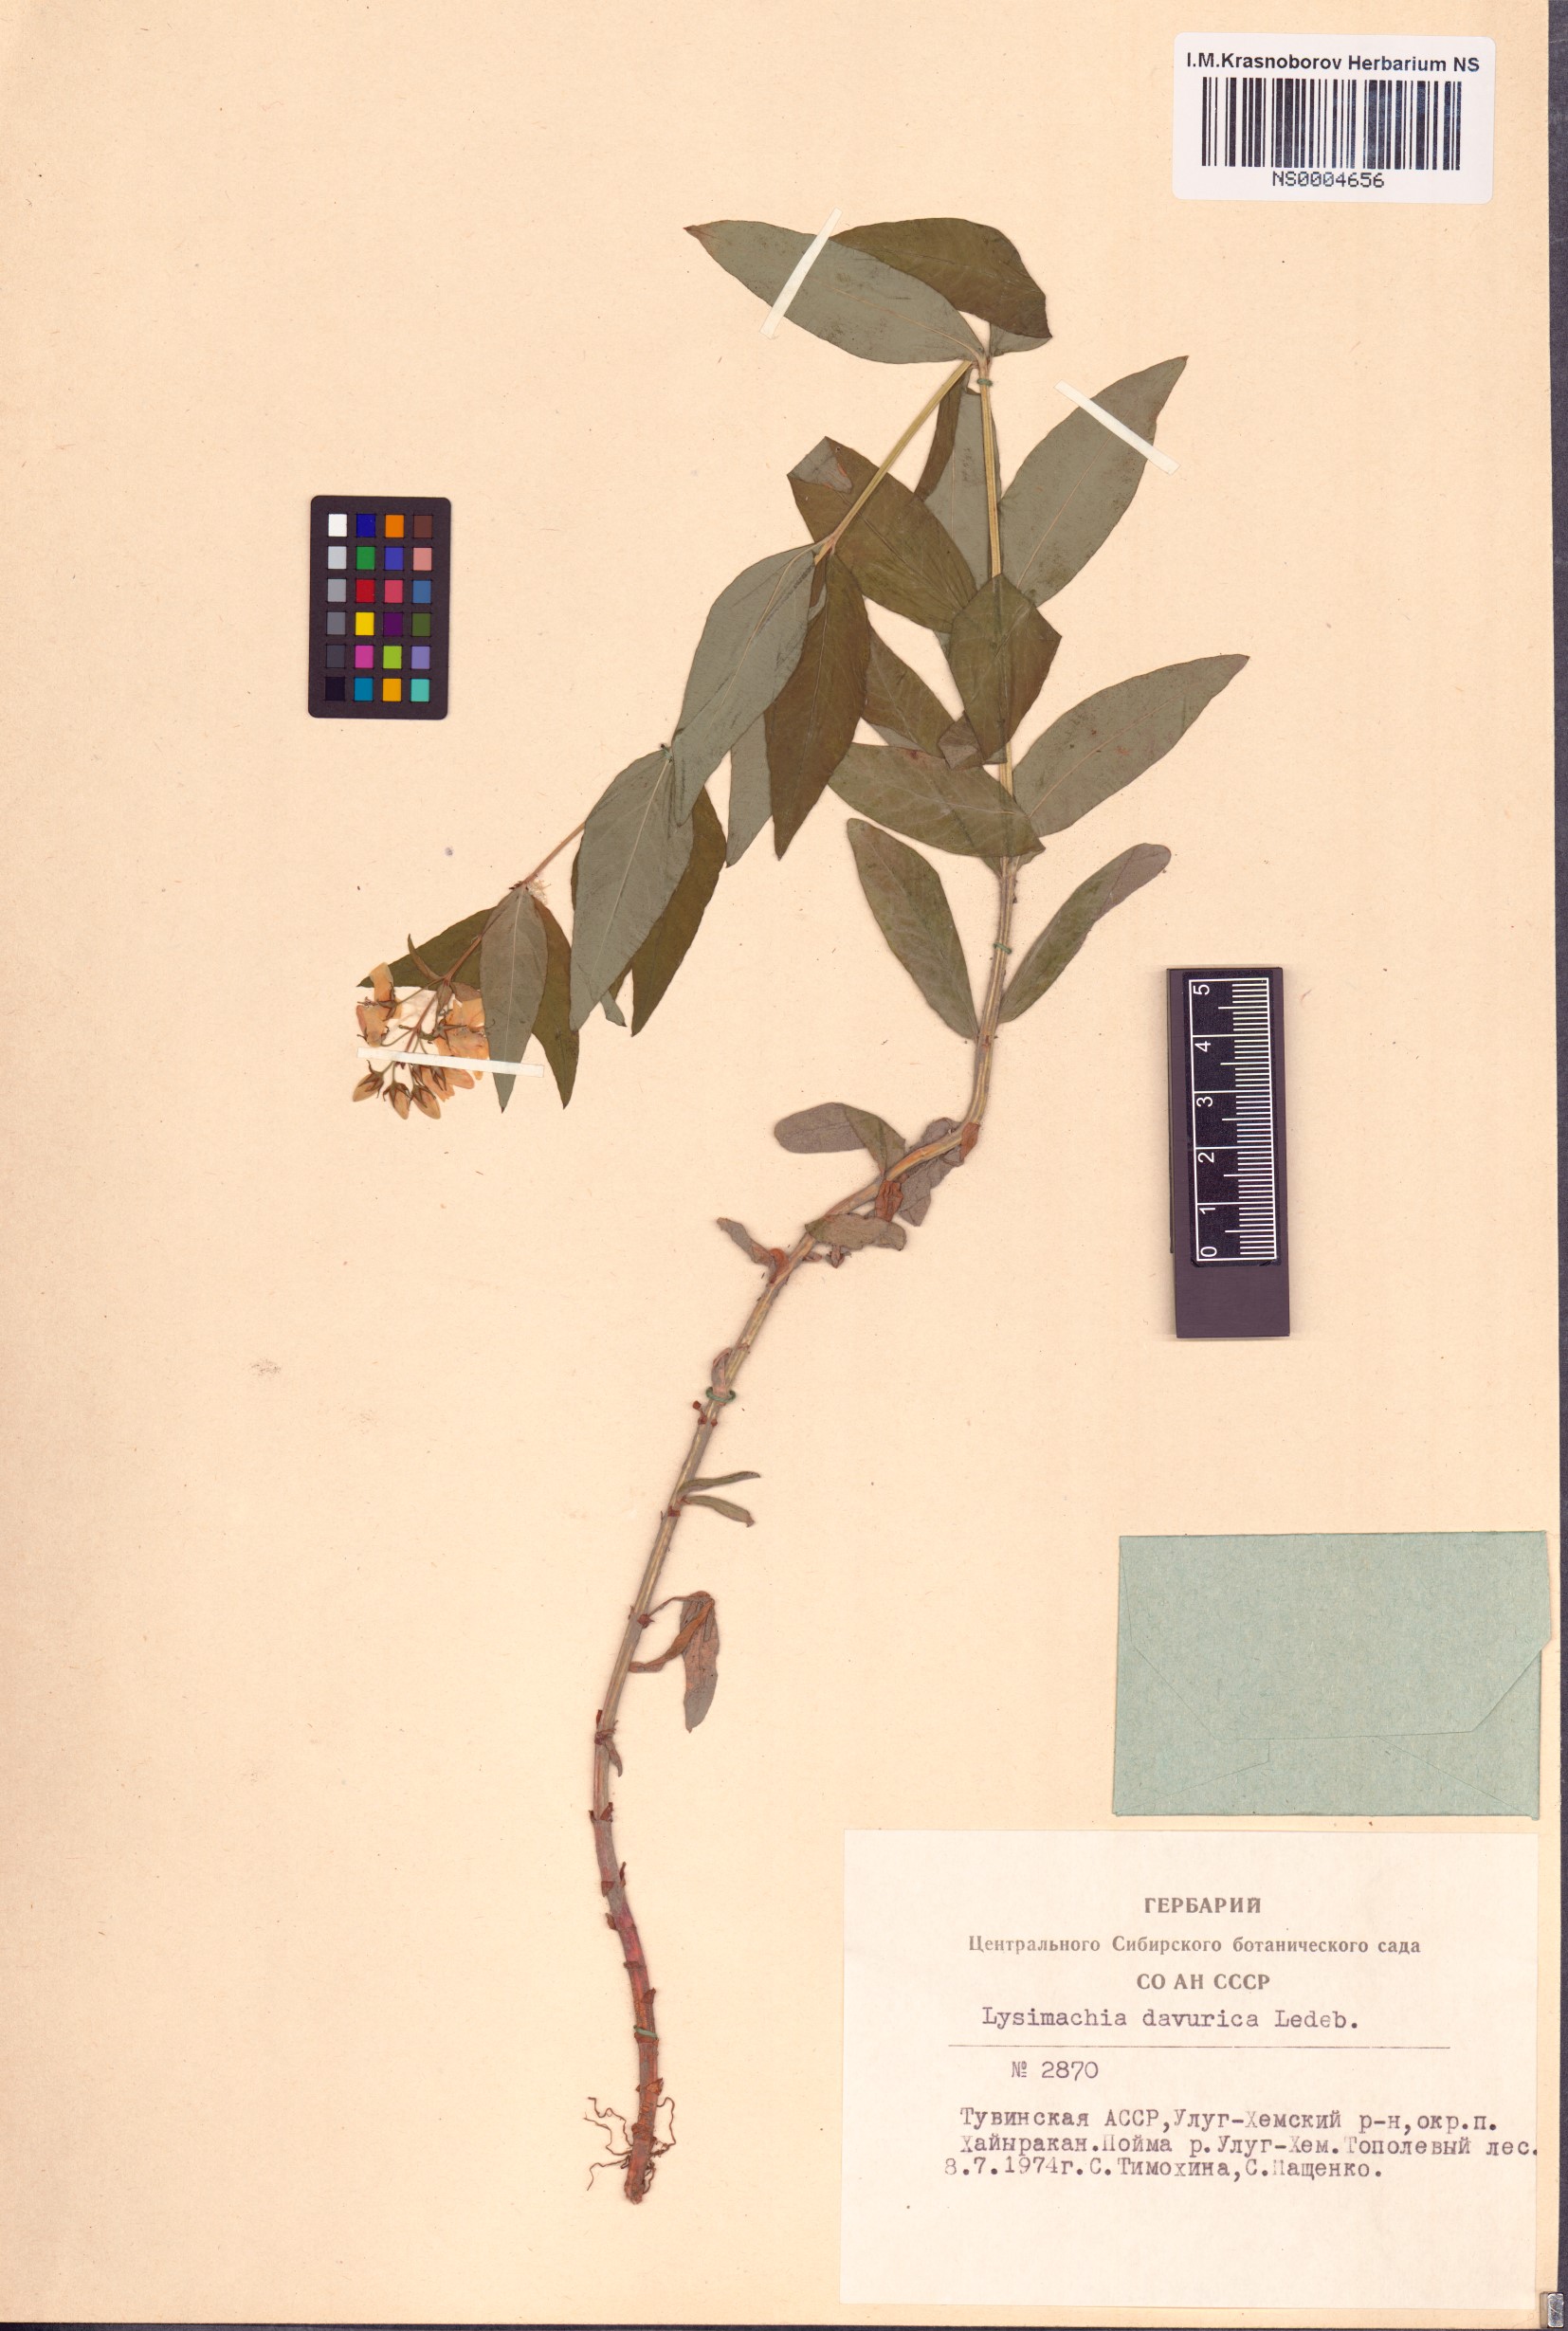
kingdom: Plantae
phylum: Tracheophyta
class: Magnoliopsida
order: Ericales
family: Primulaceae
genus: Lysimachia
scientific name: Lysimachia davurica
